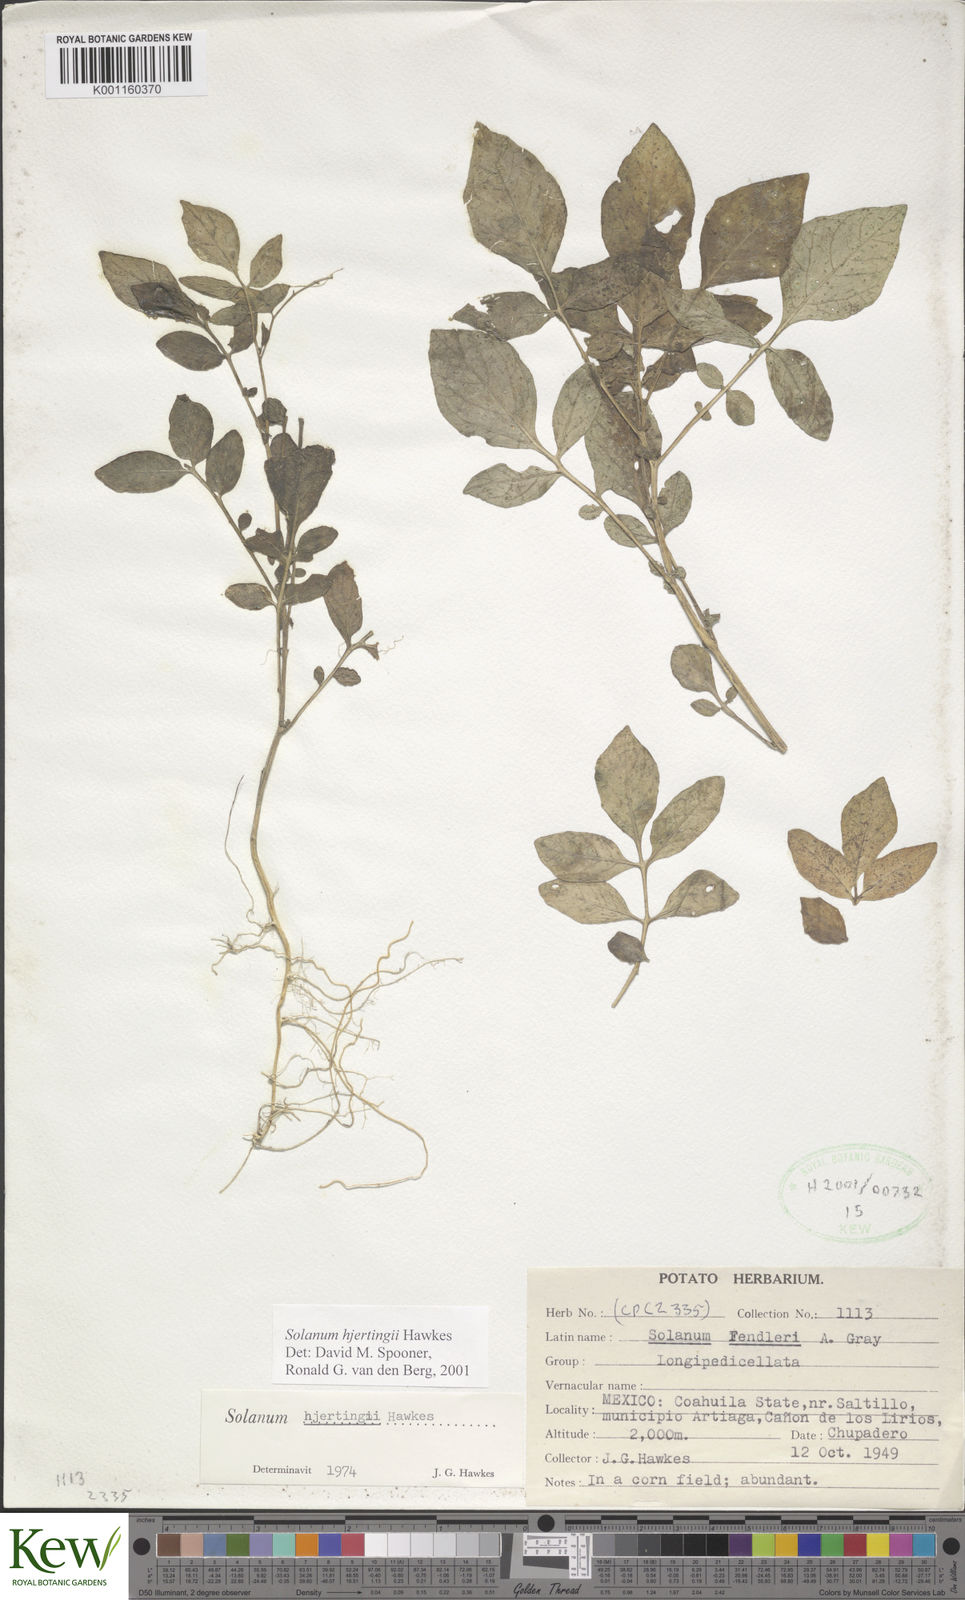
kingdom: Plantae
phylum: Tracheophyta
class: Magnoliopsida
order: Solanales
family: Solanaceae
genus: Solanum
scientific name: Solanum hjertingii
